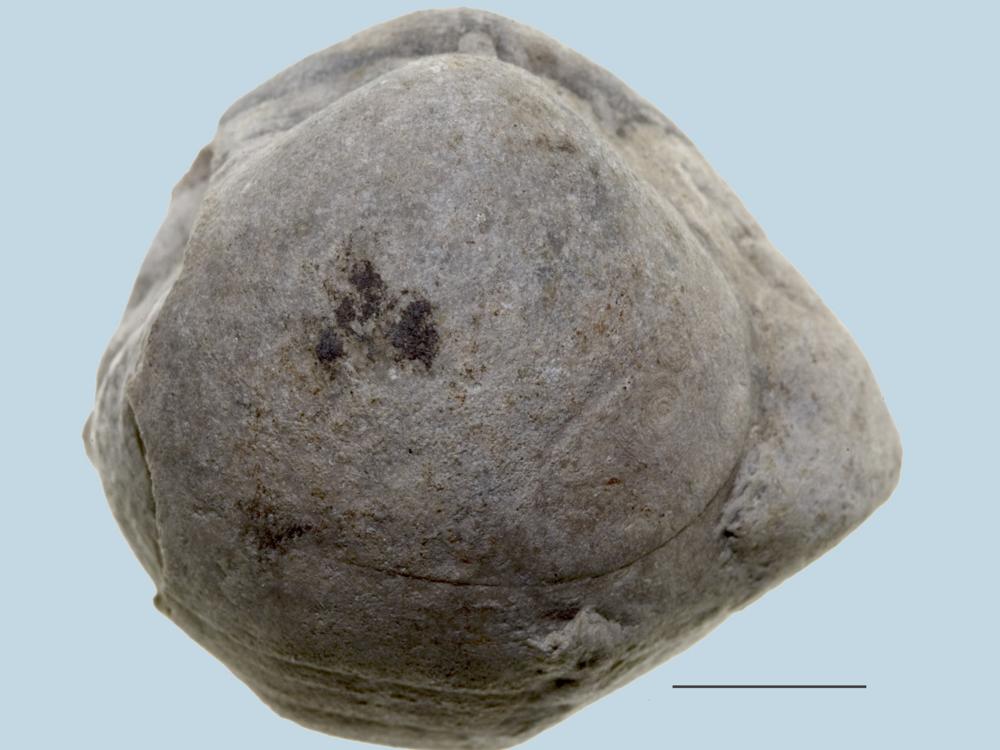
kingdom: Animalia
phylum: Brachiopoda
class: Rhynchonellata
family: Porambonitidae
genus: Porambonites
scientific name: Porambonites schmidti
